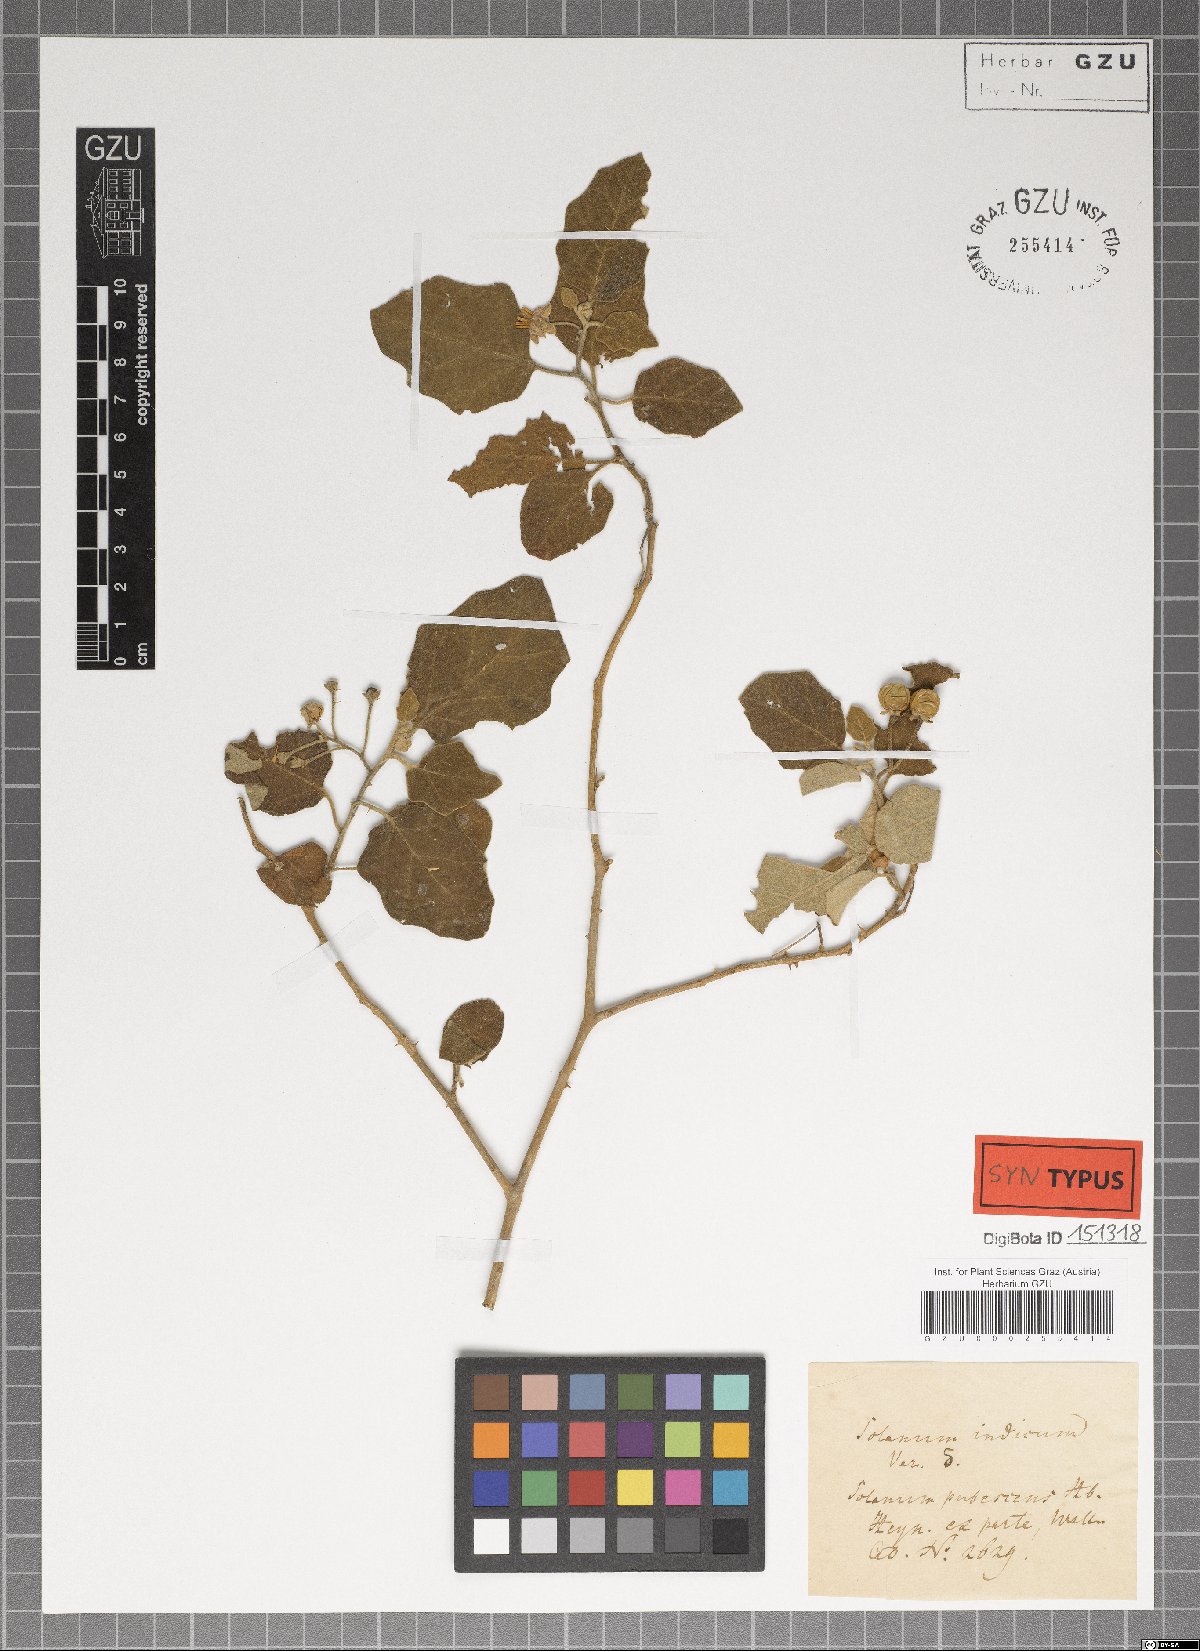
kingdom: Plantae
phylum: Tracheophyta
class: Magnoliopsida
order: Solanales
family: Solanaceae
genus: Solanum
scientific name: Solanum insanum
